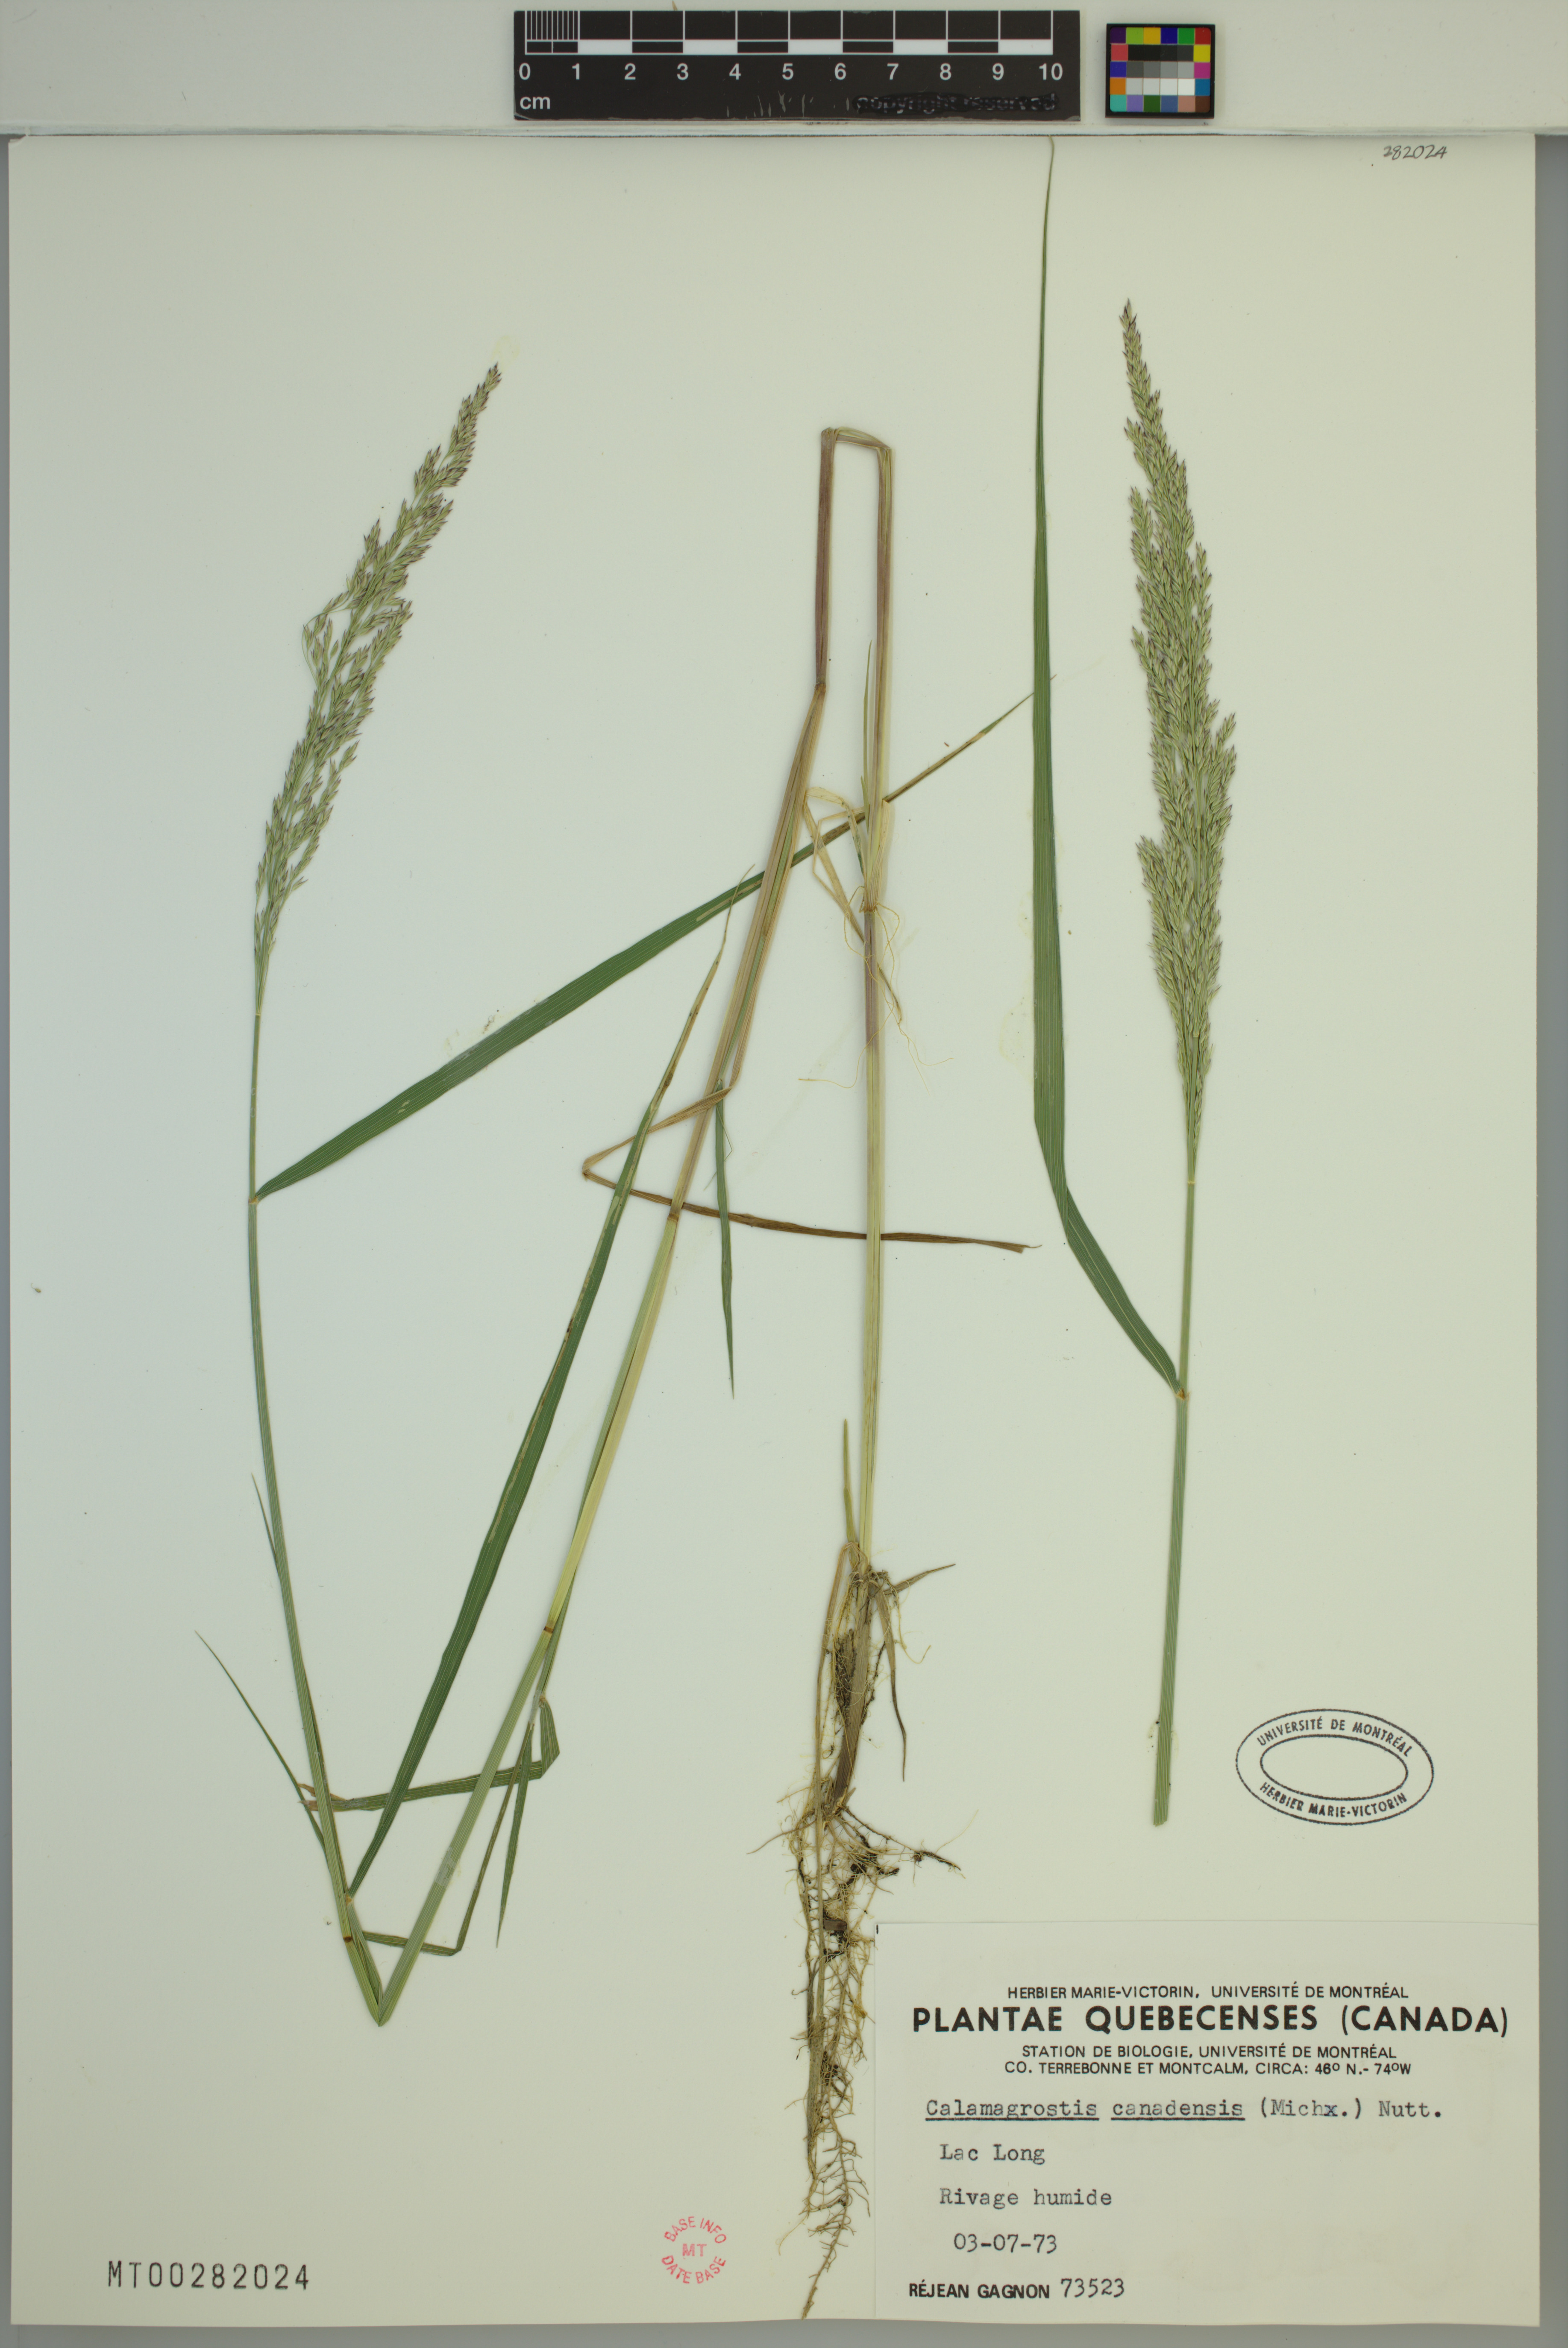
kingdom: Plantae
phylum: Tracheophyta
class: Liliopsida
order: Poales
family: Poaceae
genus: Calamagrostis
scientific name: Calamagrostis canadensis
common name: Canada bluejoint
